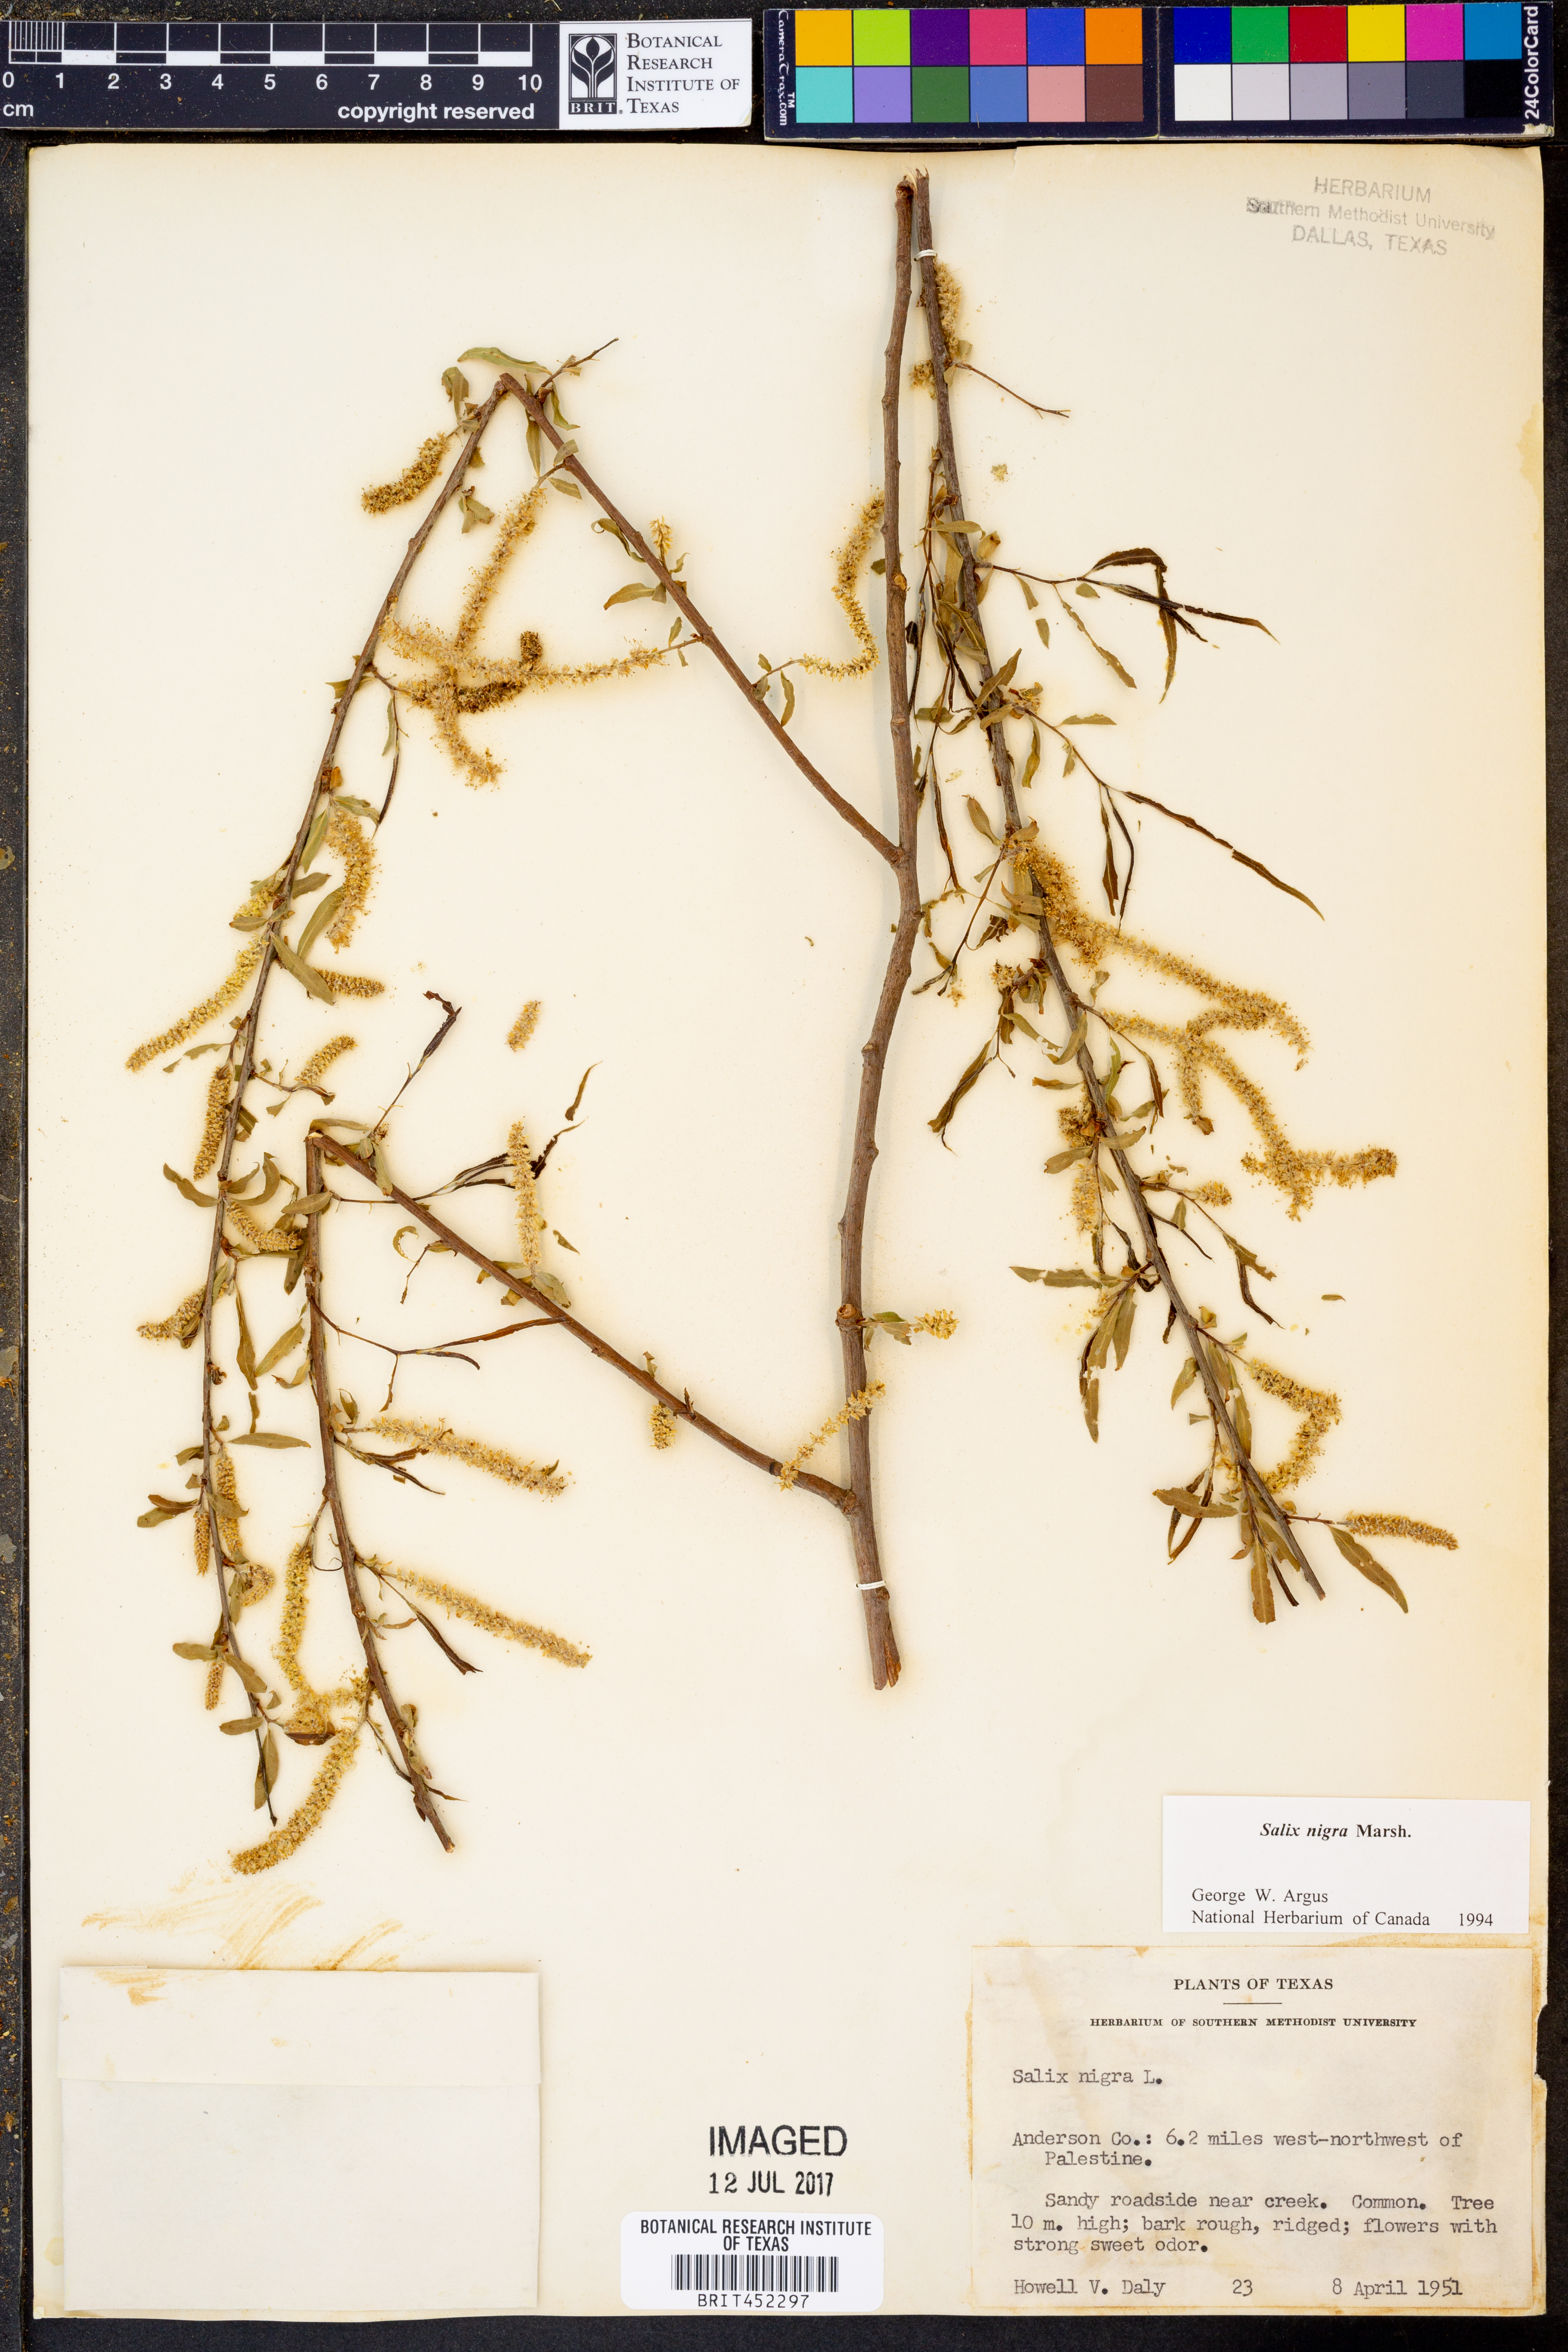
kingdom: Plantae
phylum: Tracheophyta
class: Magnoliopsida
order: Malpighiales
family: Salicaceae
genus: Salix
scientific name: Salix nigra
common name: Black willow
